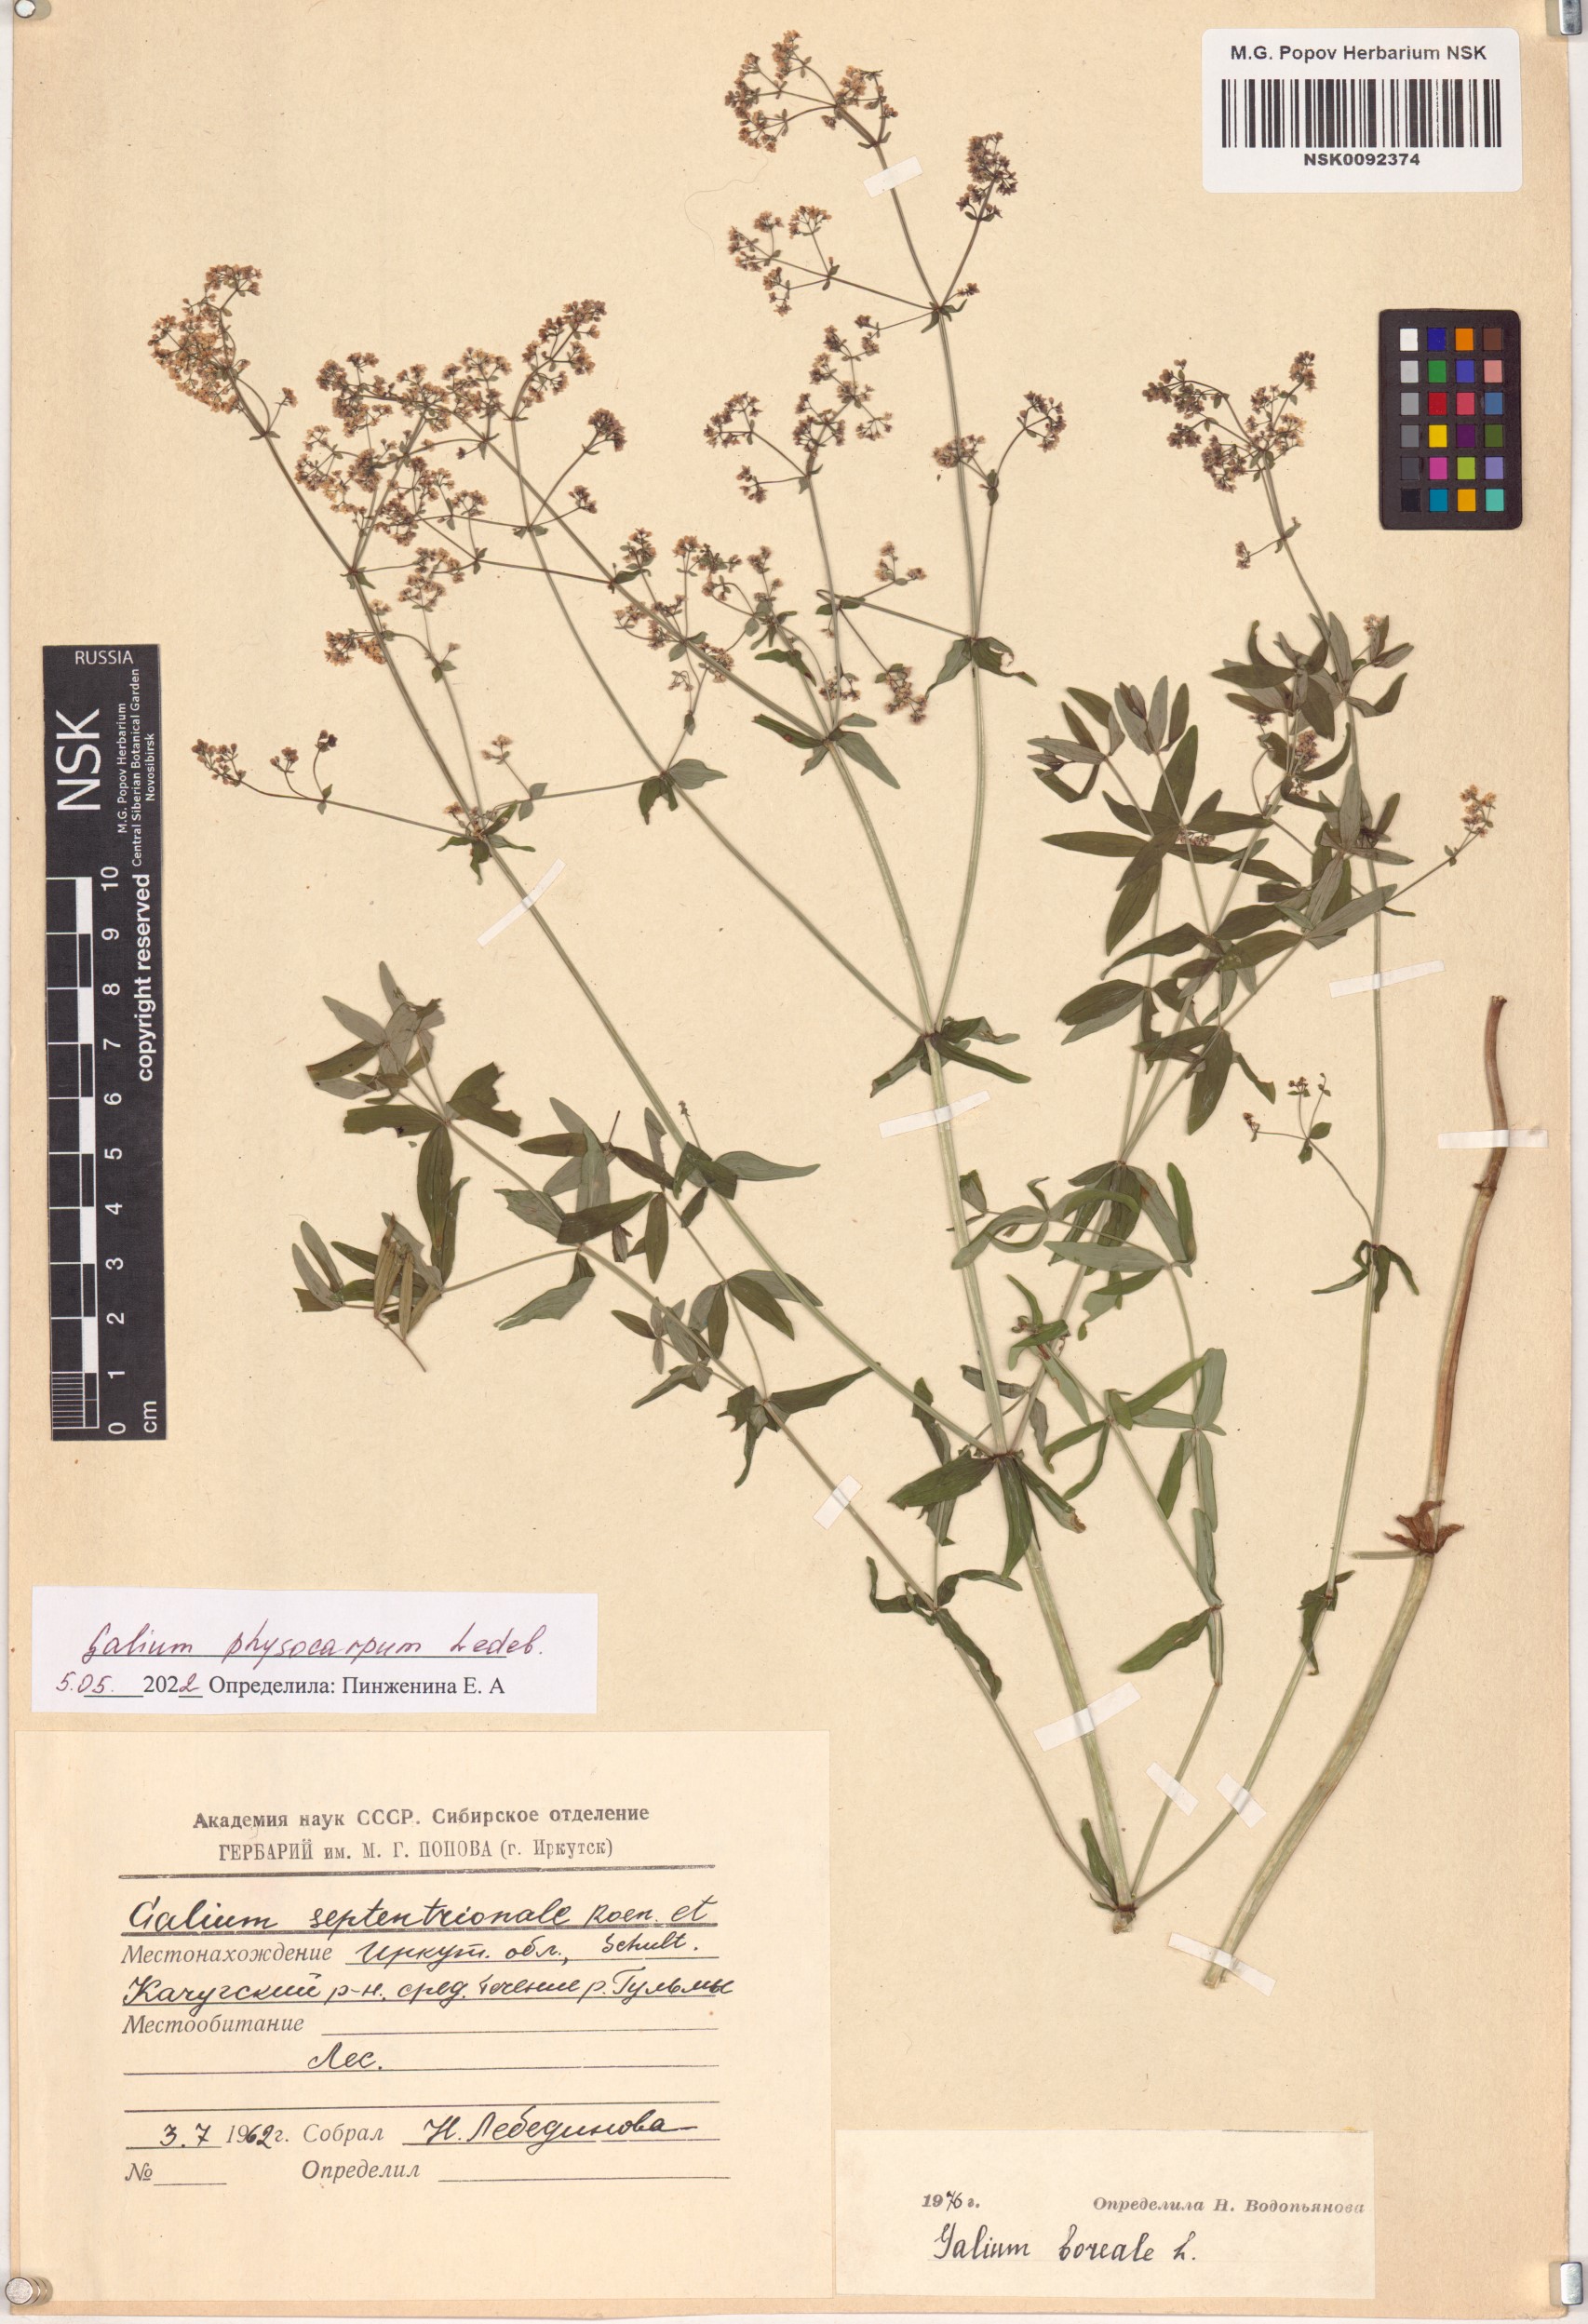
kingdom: Plantae
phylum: Tracheophyta
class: Magnoliopsida
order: Gentianales
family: Rubiaceae
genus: Galium
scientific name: Galium rubioides
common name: European bedstraw
